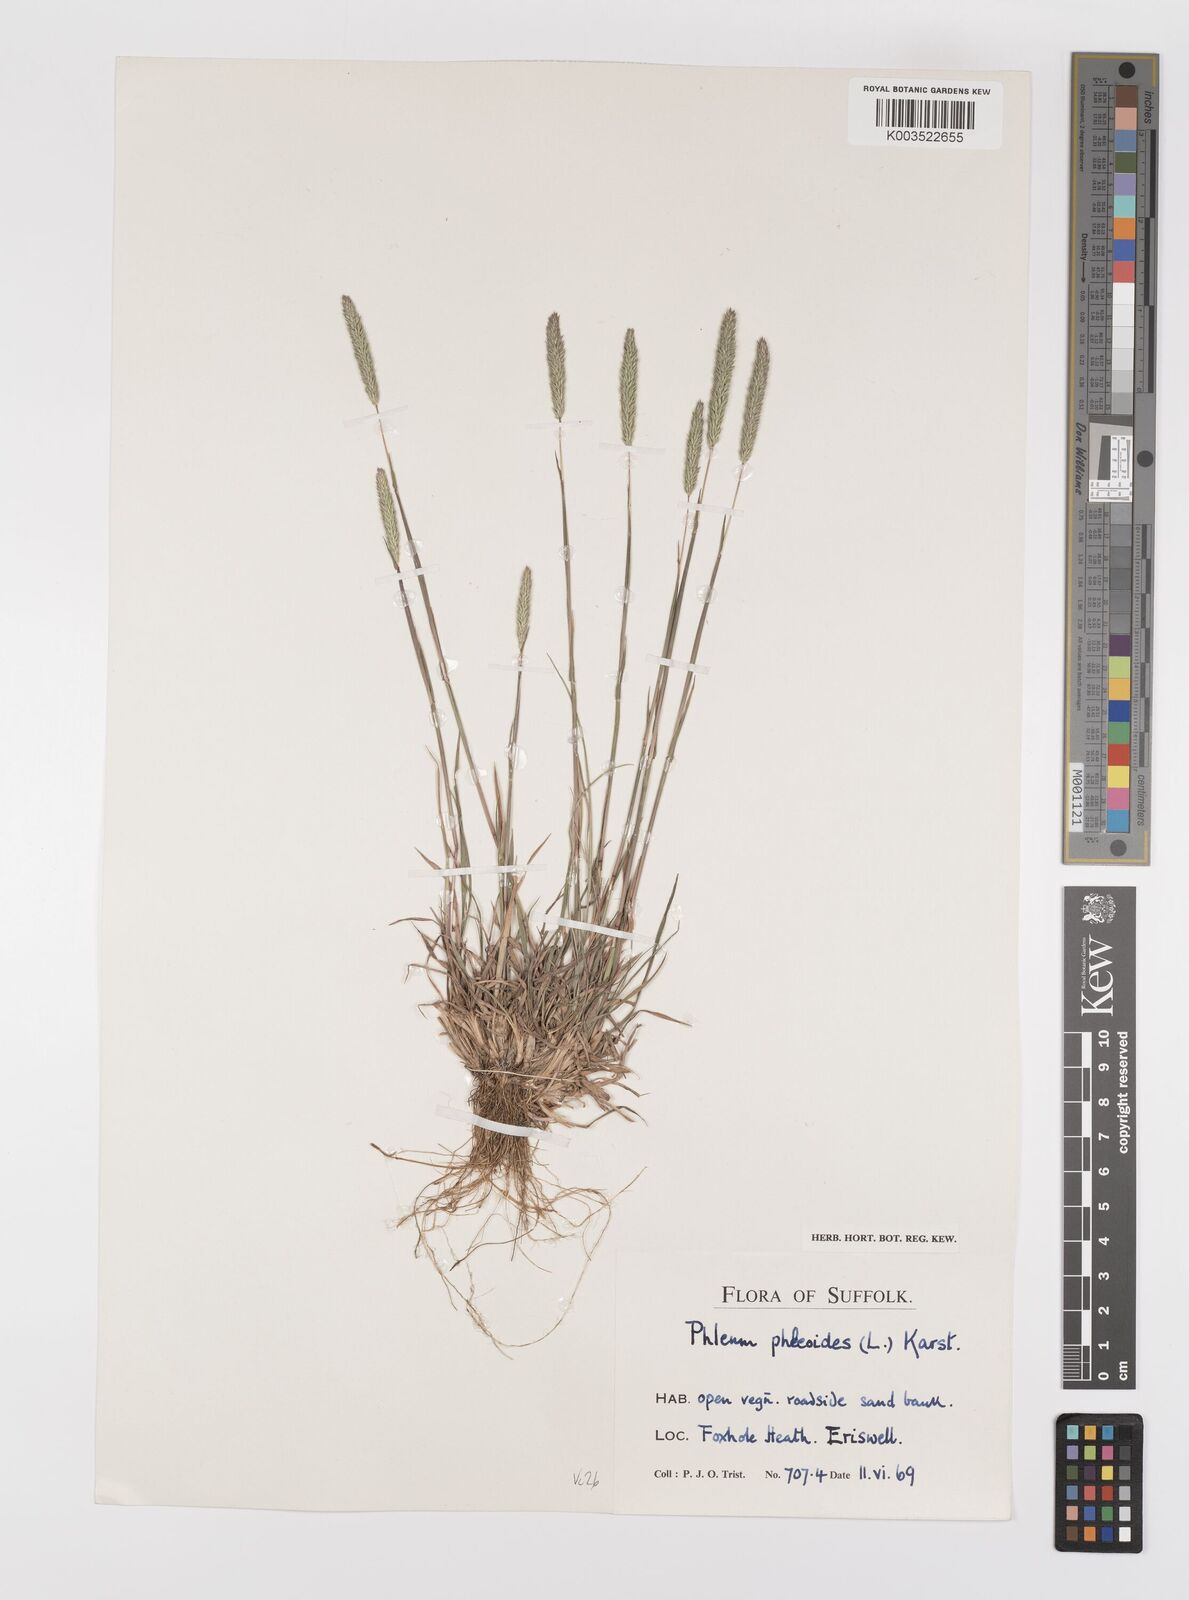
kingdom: Plantae
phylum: Tracheophyta
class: Liliopsida
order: Poales
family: Poaceae
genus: Phleum
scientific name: Phleum phleoides
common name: Purple-stem cat's-tail
